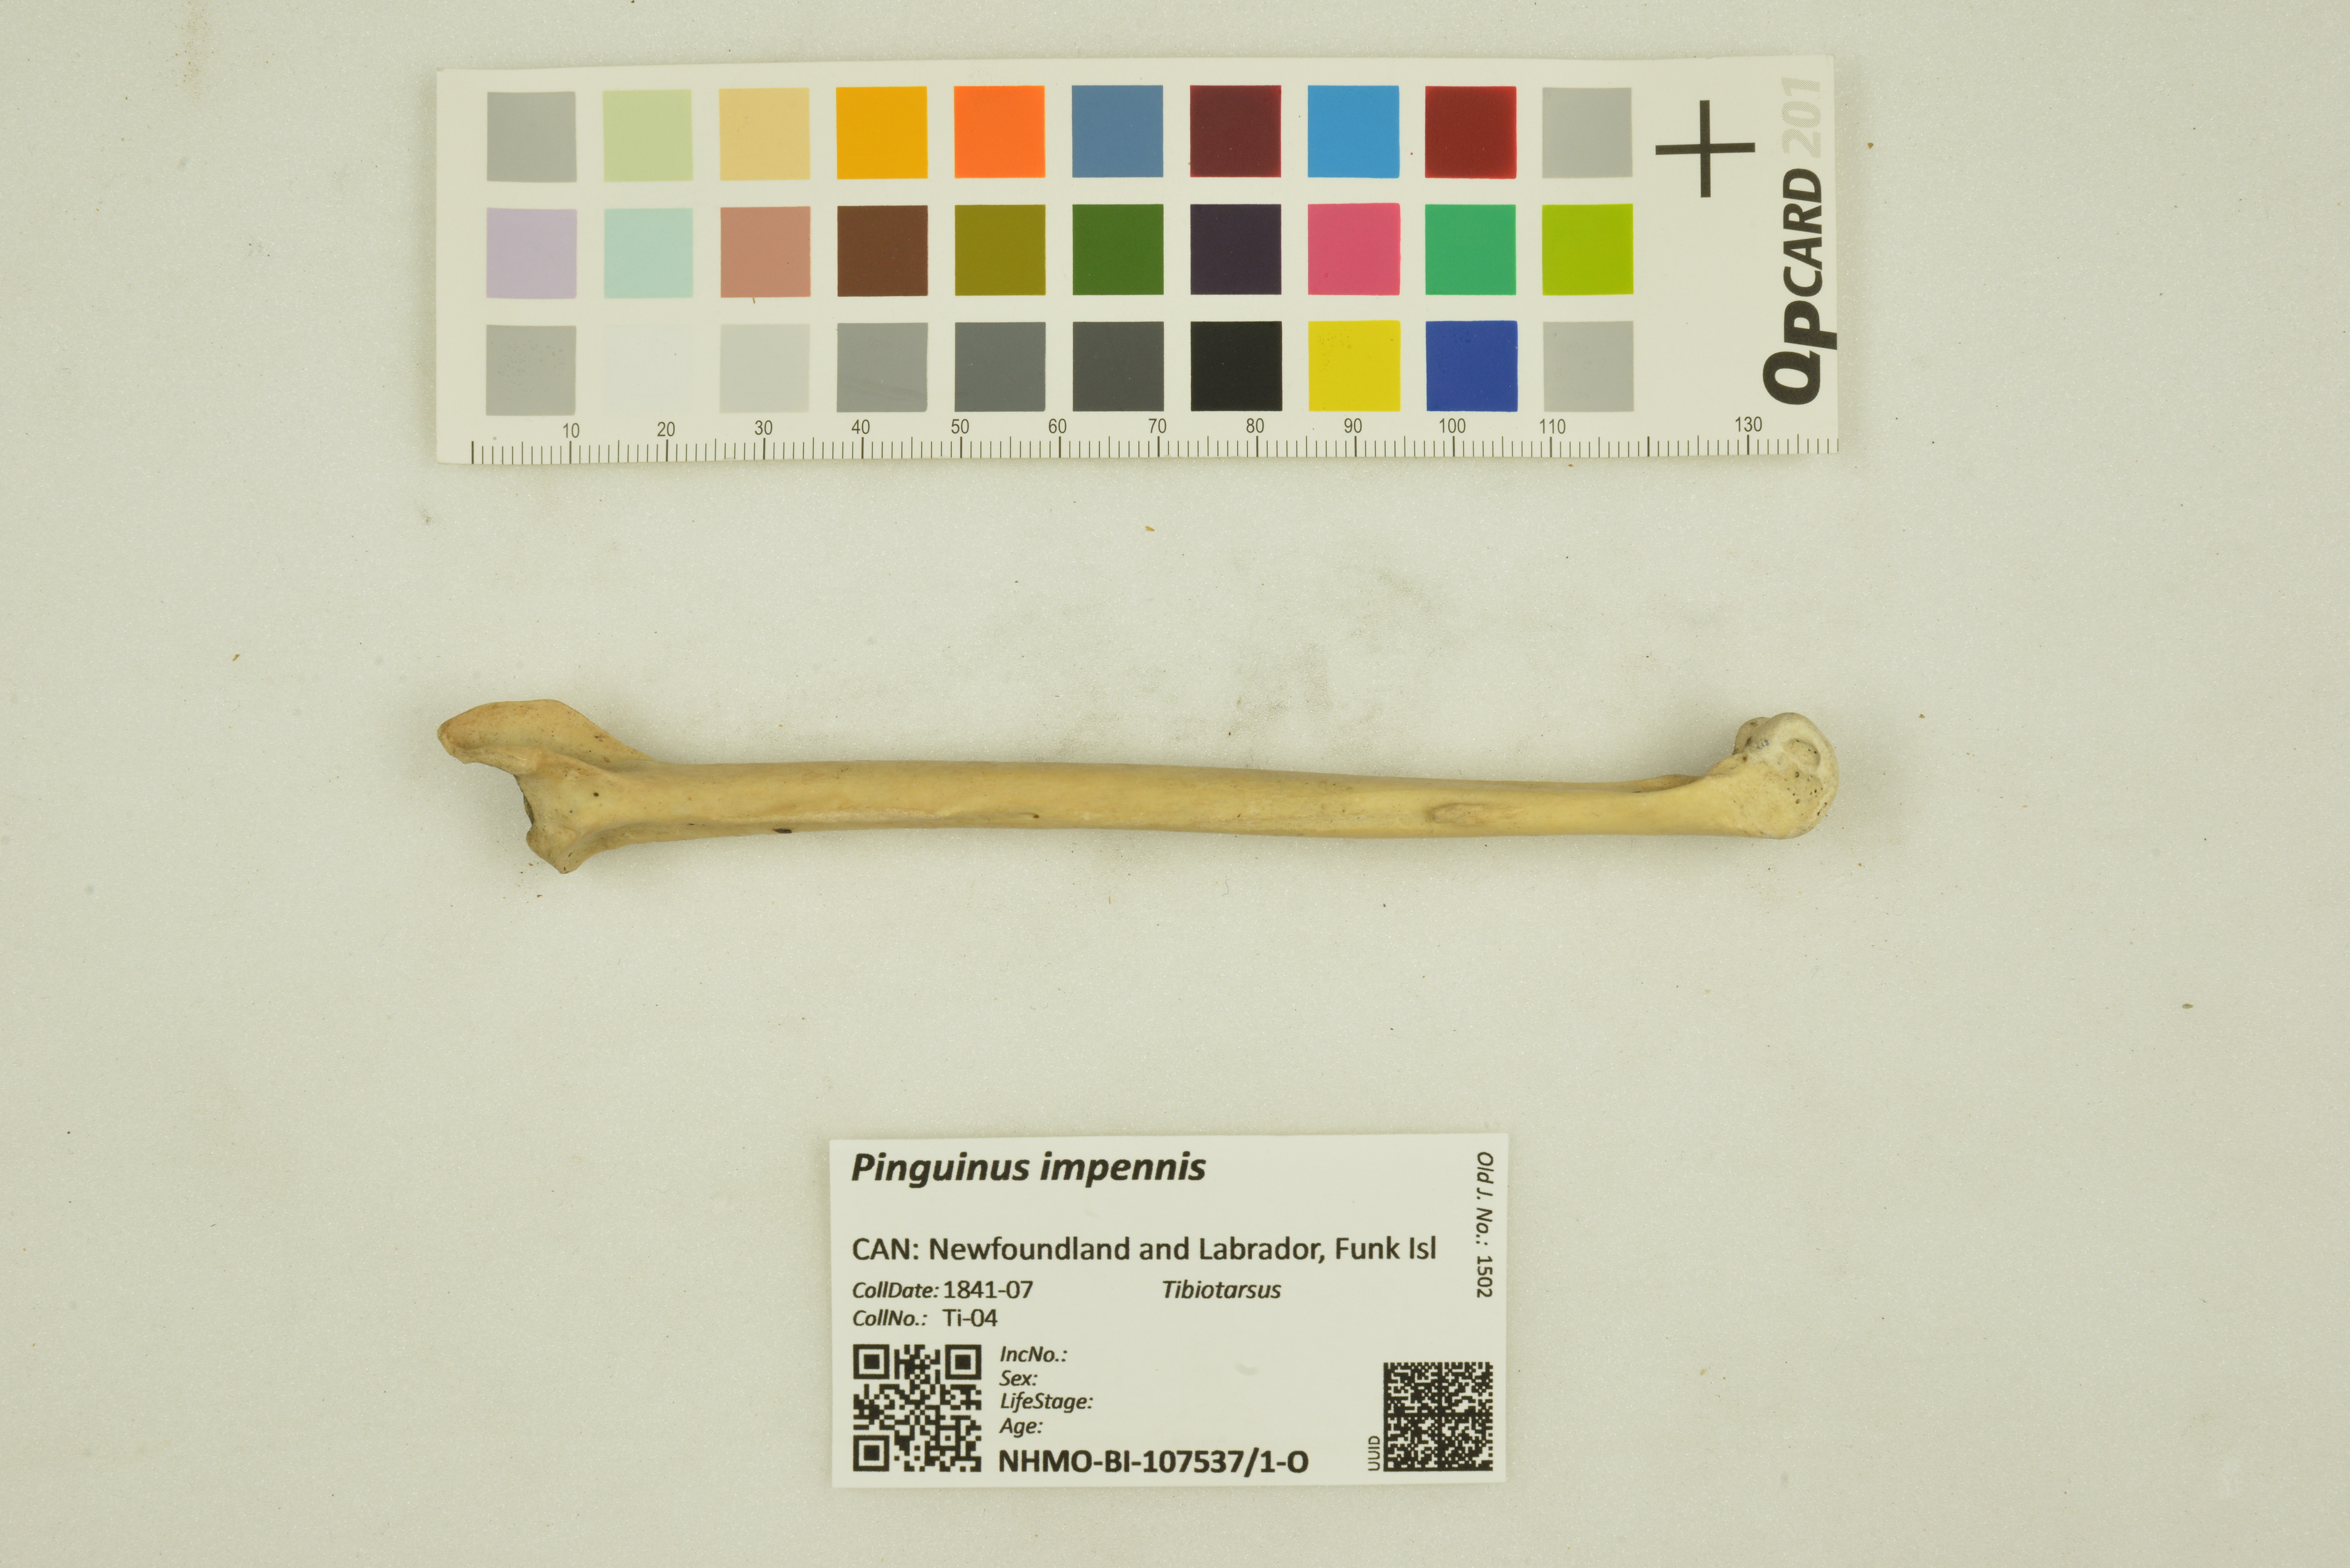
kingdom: Animalia
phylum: Chordata
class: Aves
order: Charadriiformes
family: Alcidae
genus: Pinguinus
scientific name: Pinguinus impennis
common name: Great auk
